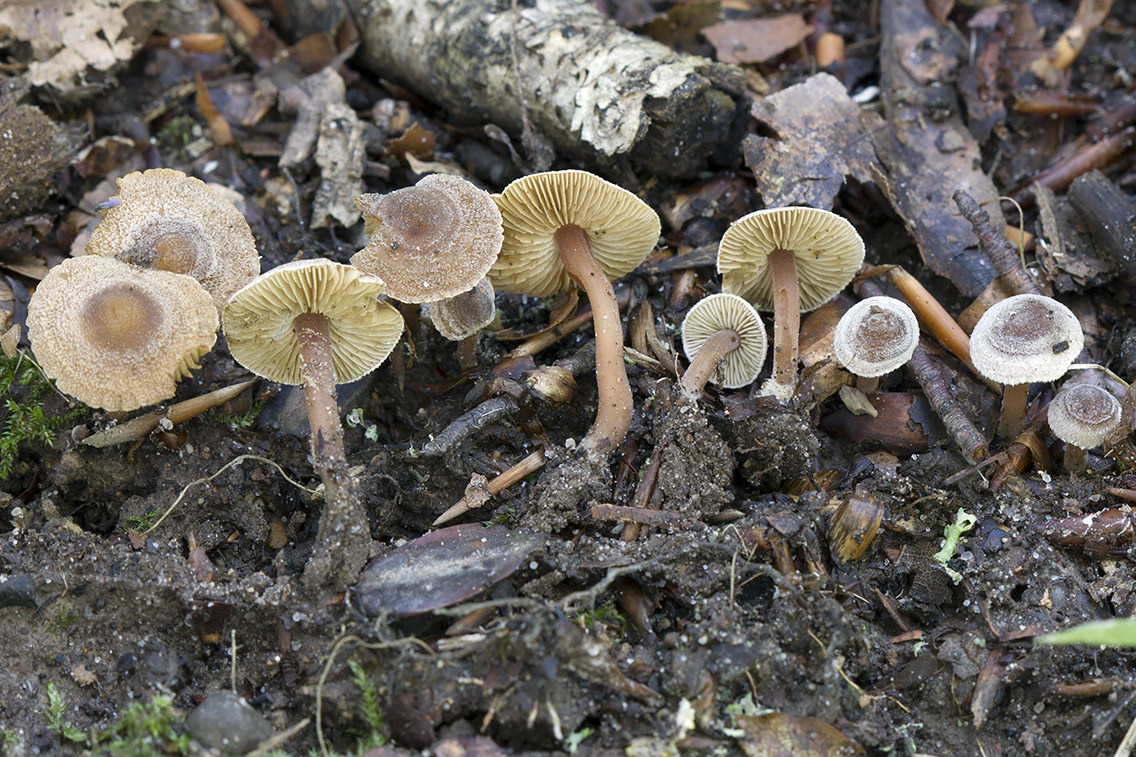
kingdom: Fungi
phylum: Basidiomycota
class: Agaricomycetes
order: Agaricales
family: Inocybaceae
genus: Inocybe
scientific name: Inocybe petiginosa
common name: liden trævlhat
